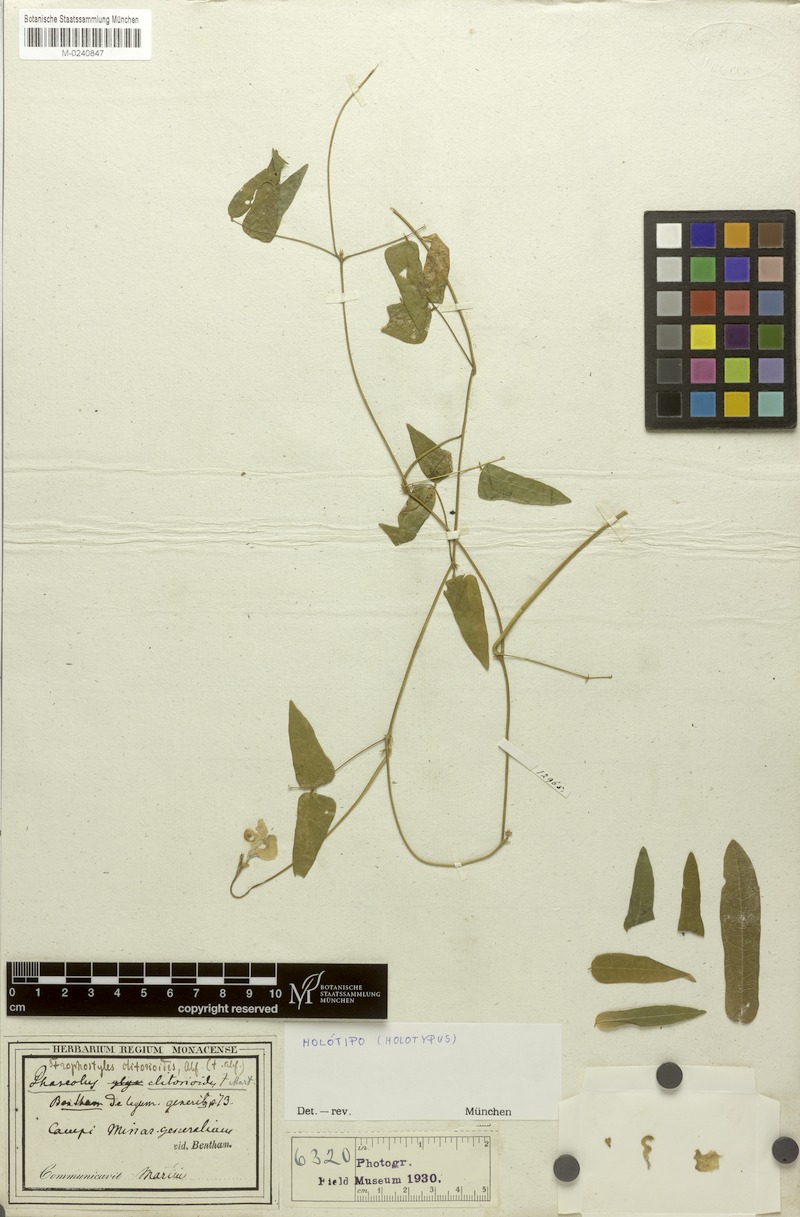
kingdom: Plantae
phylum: Tracheophyta
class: Magnoliopsida
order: Fabales
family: Fabaceae
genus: Ancistrotropis
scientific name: Ancistrotropis clitorioides
